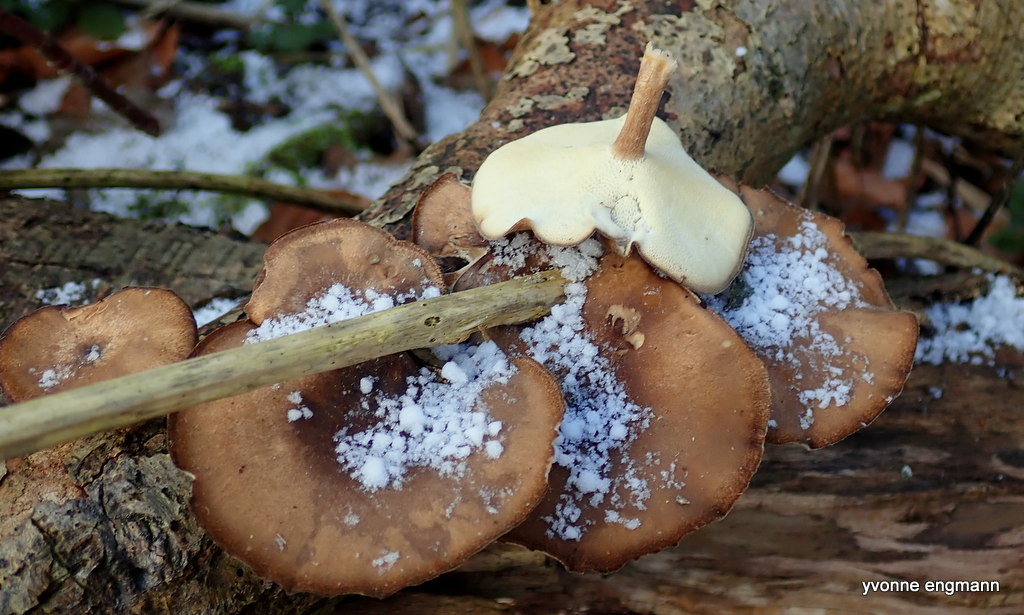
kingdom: Fungi
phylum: Basidiomycota
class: Agaricomycetes
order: Polyporales
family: Polyporaceae
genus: Lentinus
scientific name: Lentinus brumalis
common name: vinter-stilkporesvamp
